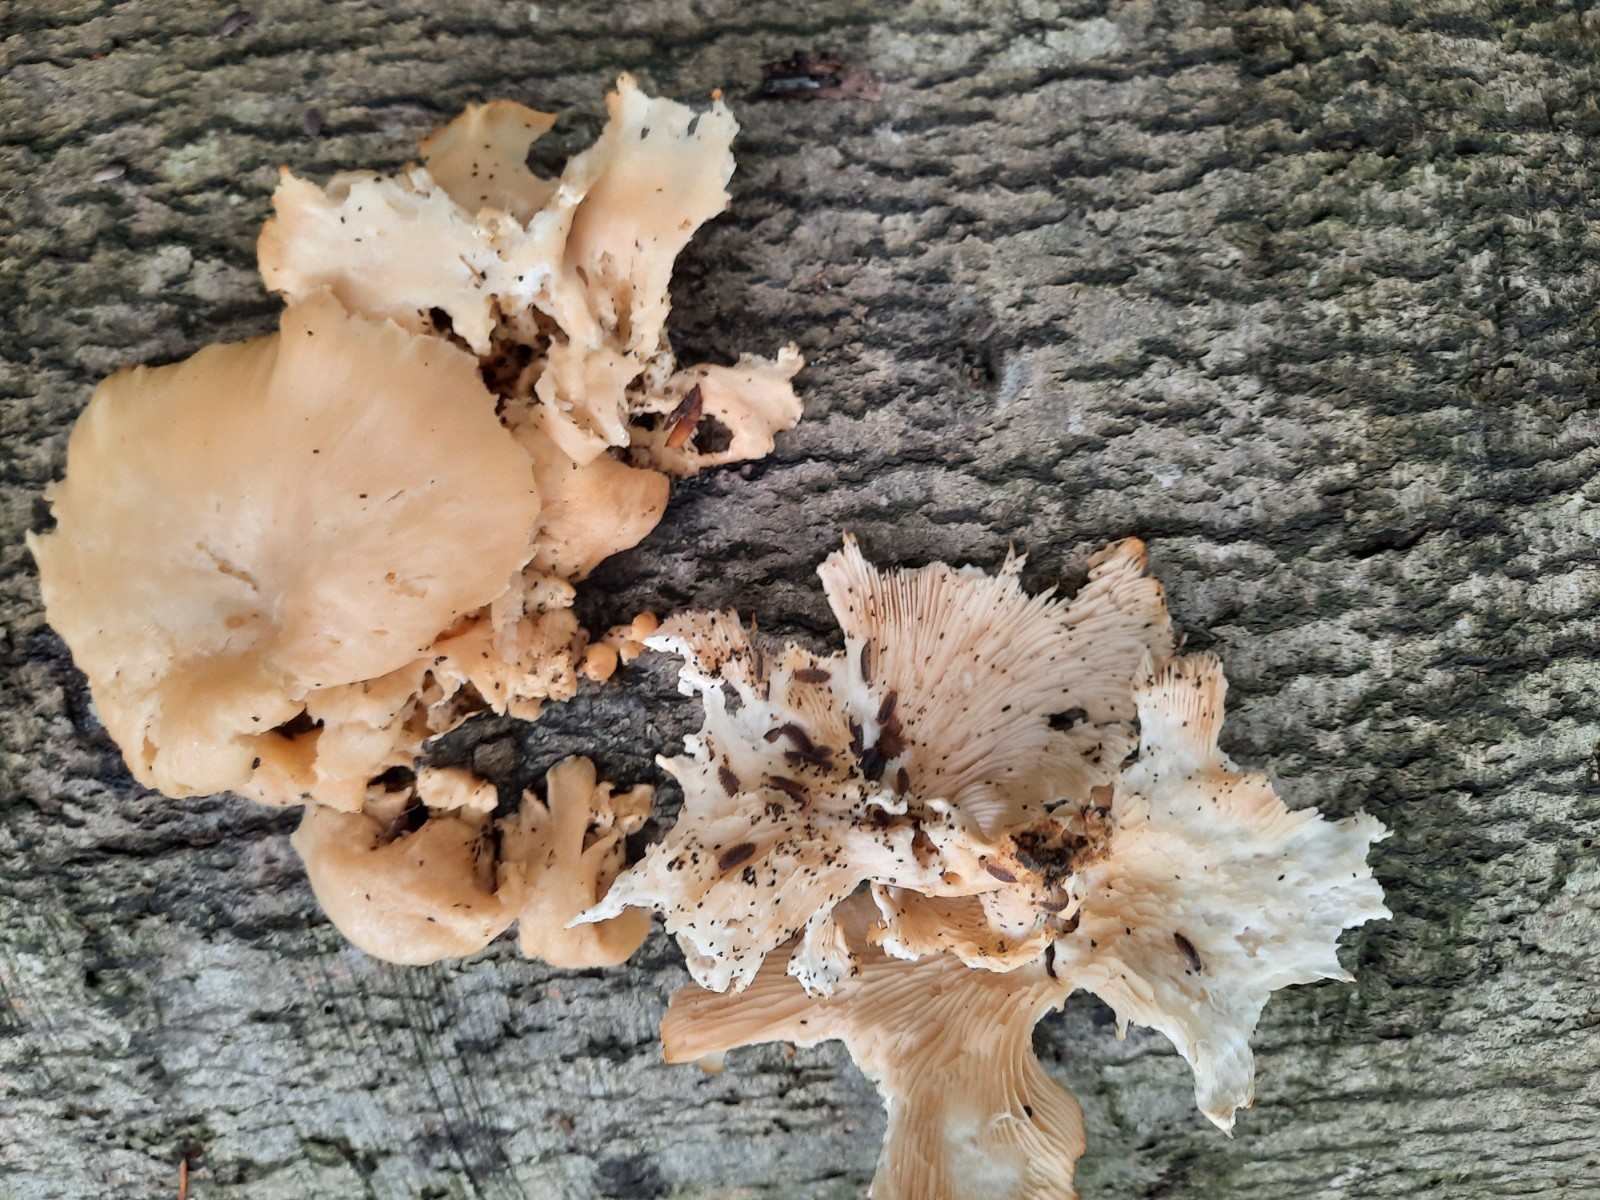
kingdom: Fungi
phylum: Basidiomycota
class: Agaricomycetes
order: Agaricales
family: Pleurotaceae
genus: Pleurotus
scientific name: Pleurotus pulmonarius
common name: sommer-østershat
